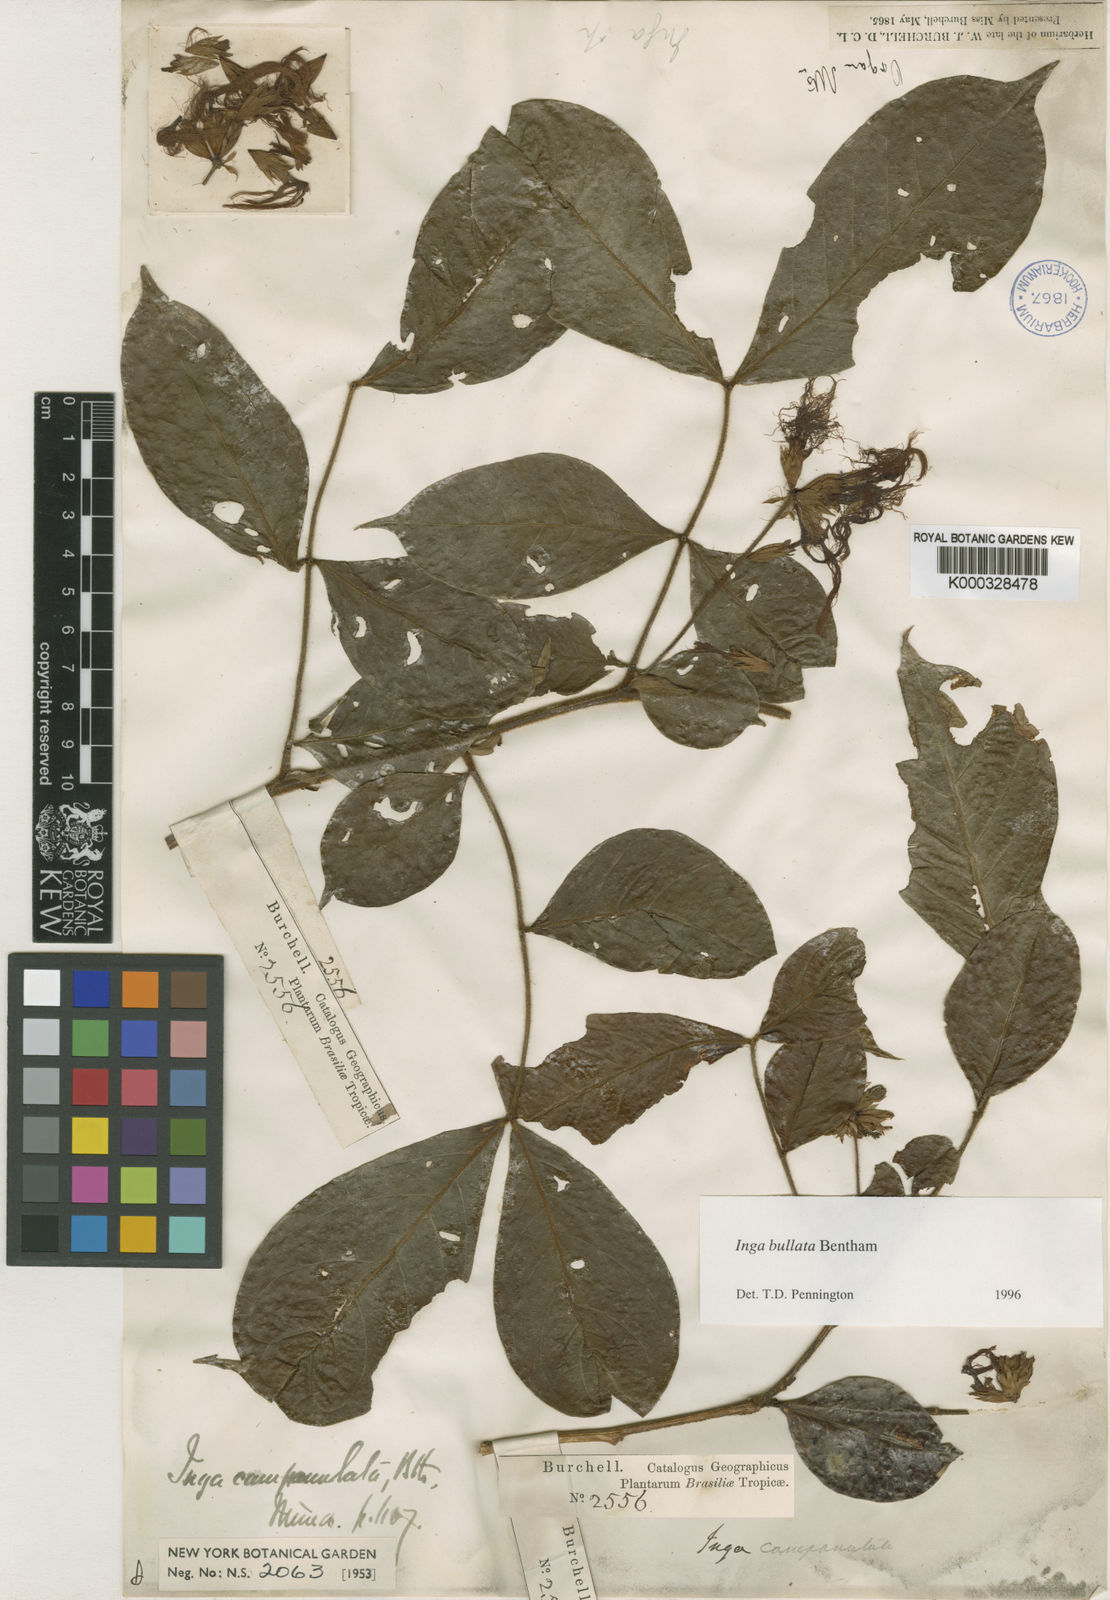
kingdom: Plantae
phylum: Tracheophyta
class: Magnoliopsida
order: Fabales
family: Fabaceae
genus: Inga
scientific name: Inga bullata
